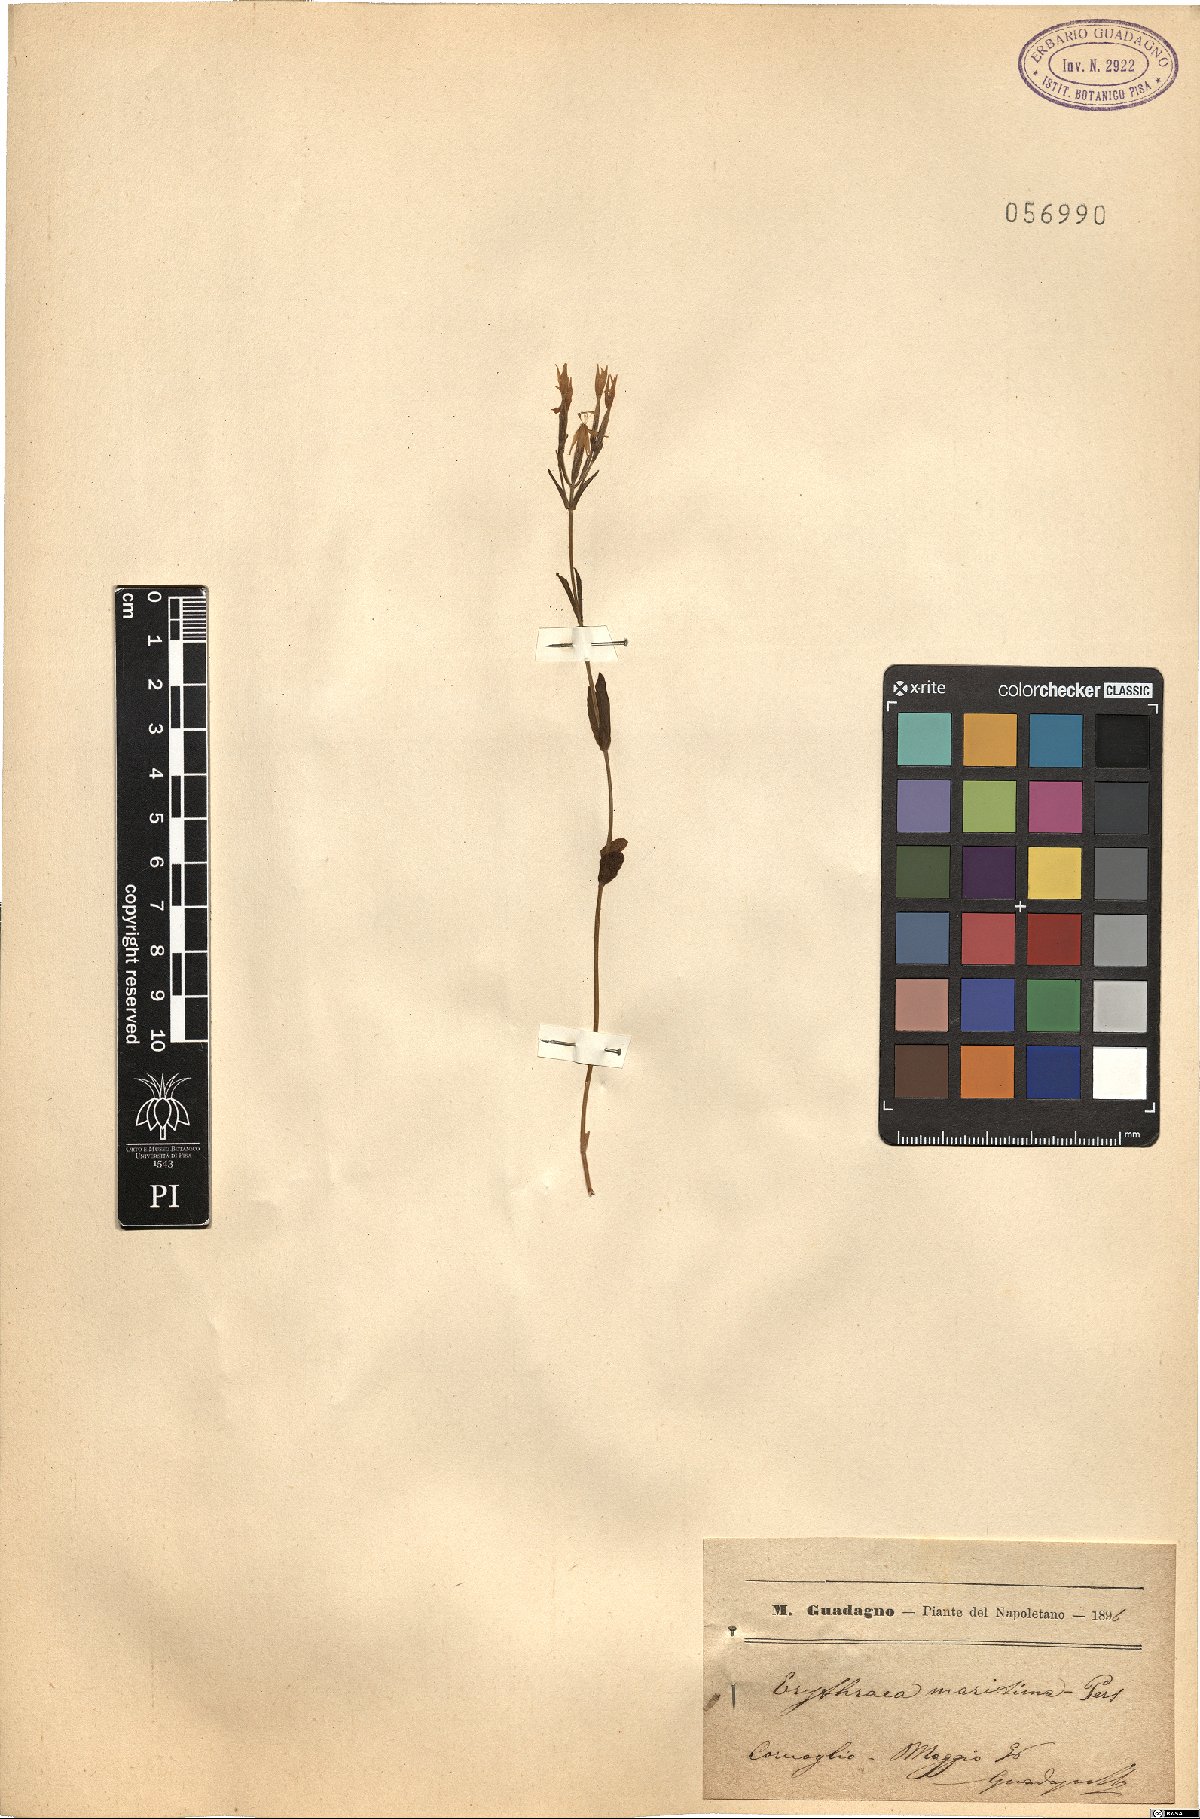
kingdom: Plantae
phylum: Tracheophyta
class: Magnoliopsida
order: Gentianales
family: Gentianaceae
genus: Centaurium
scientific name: Centaurium maritimum
